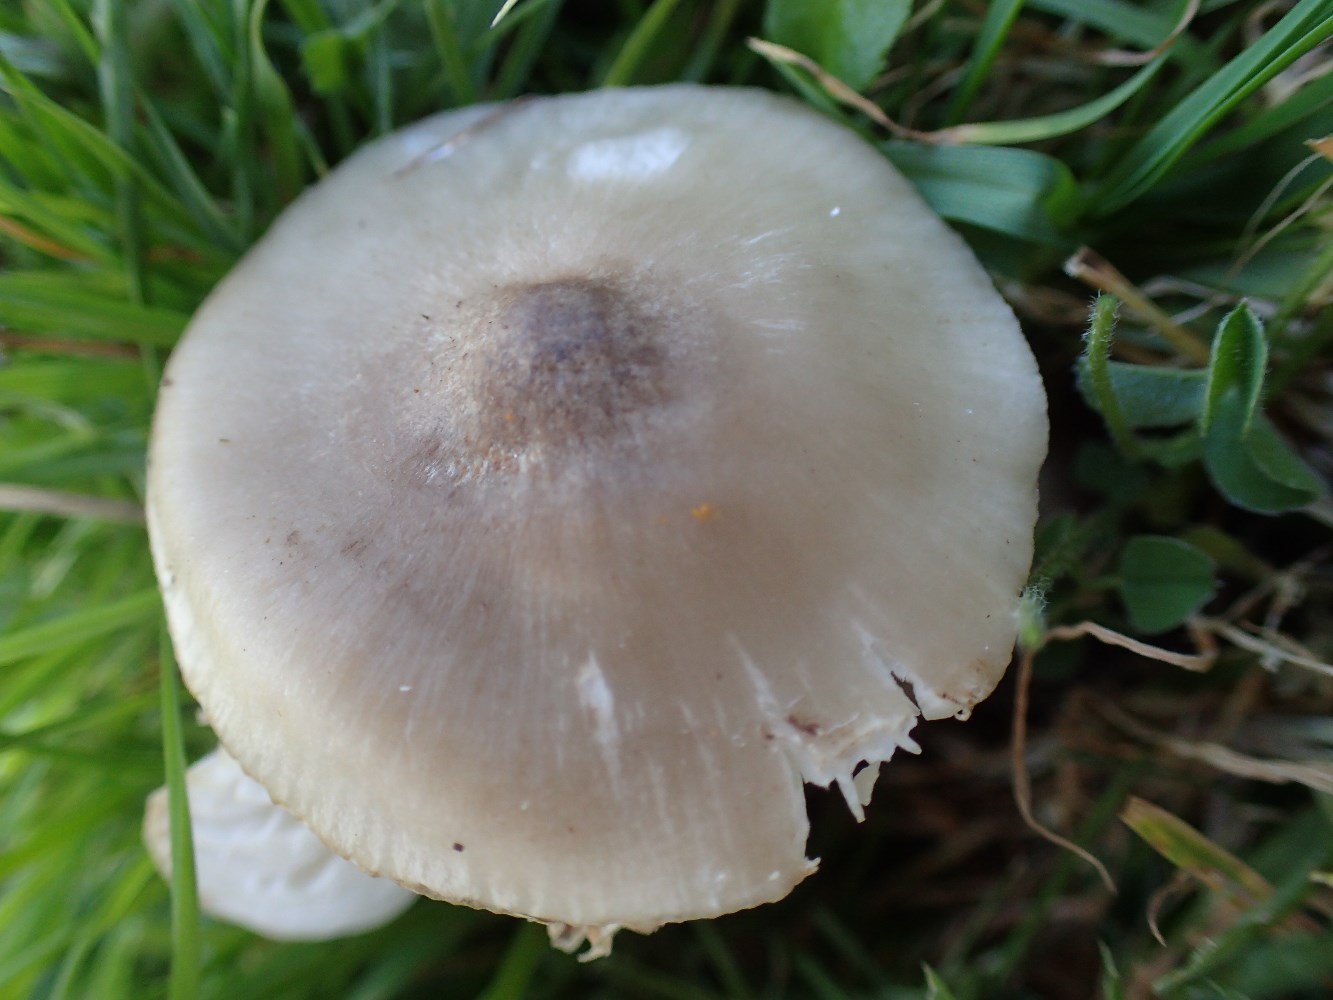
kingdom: Fungi
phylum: Basidiomycota
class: Agaricomycetes
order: Agaricales
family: Hygrophoraceae
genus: Cuphophyllus
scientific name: Cuphophyllus fornicatus
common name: gråbrun vokshat
